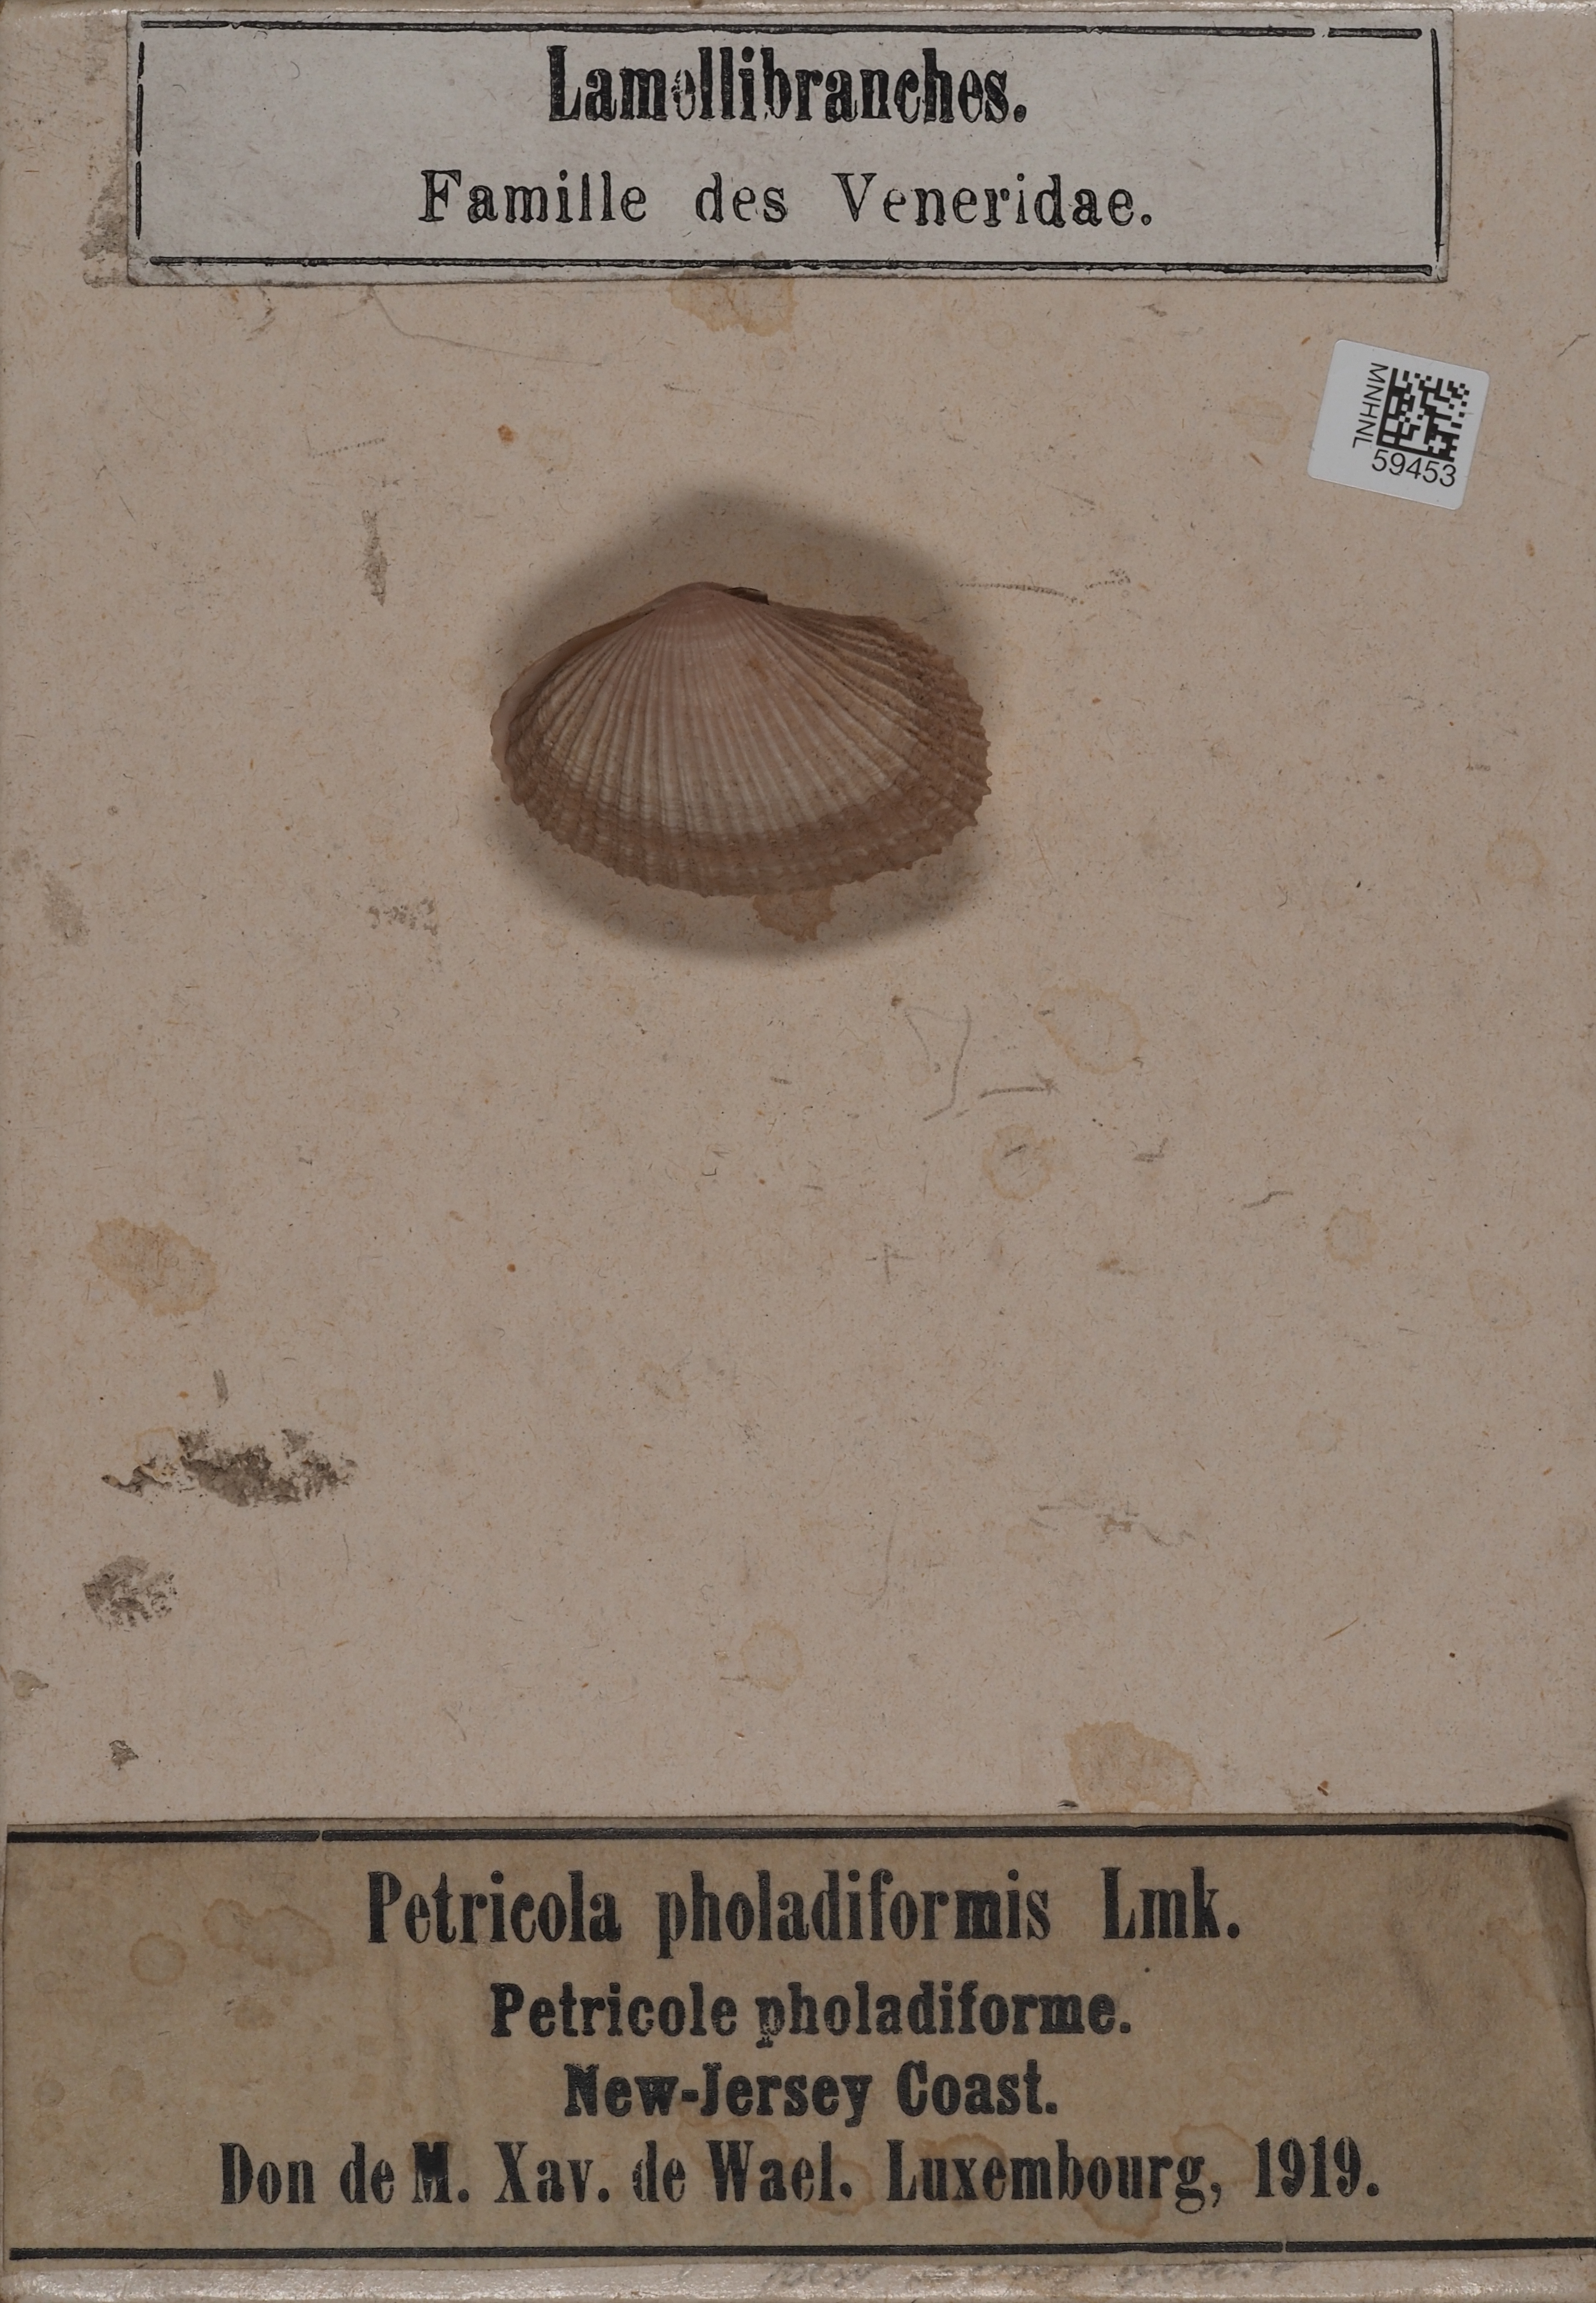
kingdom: Animalia
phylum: Mollusca
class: Bivalvia
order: Venerida
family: Veneridae
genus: Petricolaria
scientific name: Petricolaria pholadiformis
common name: American piddock
